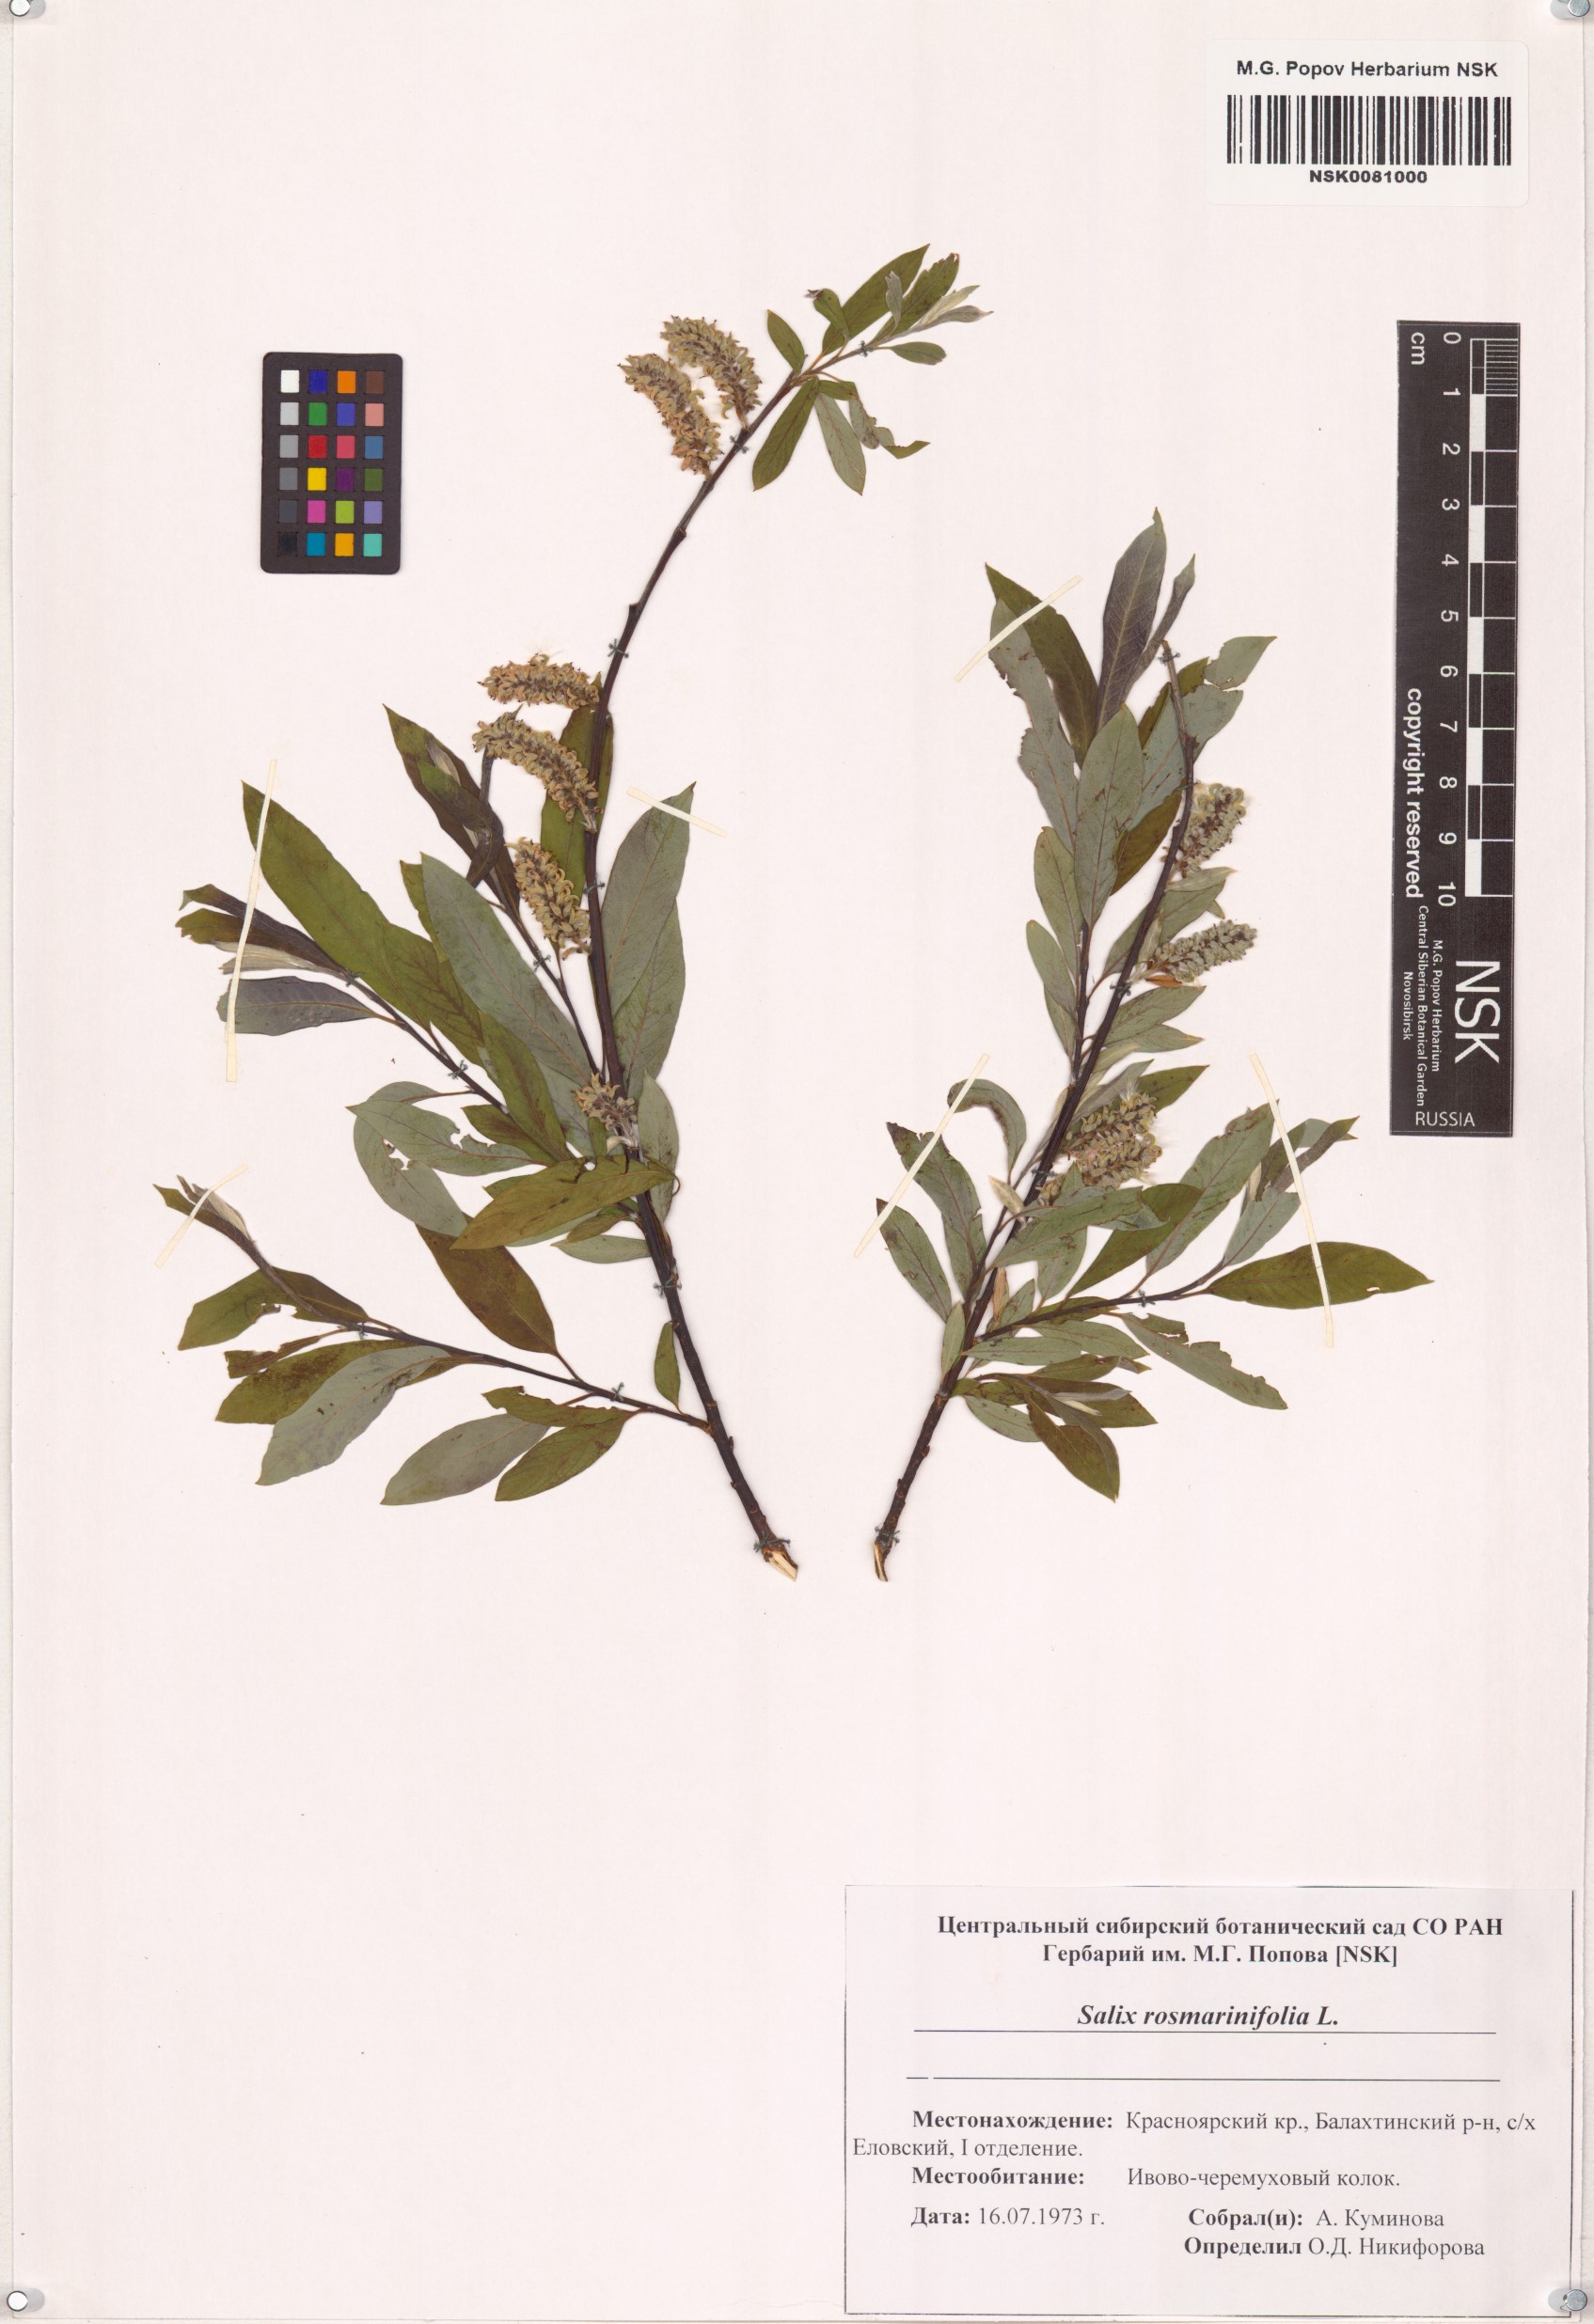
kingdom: Plantae
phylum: Tracheophyta
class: Magnoliopsida
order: Malpighiales
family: Salicaceae
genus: Salix
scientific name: Salix rosmarinifolia
